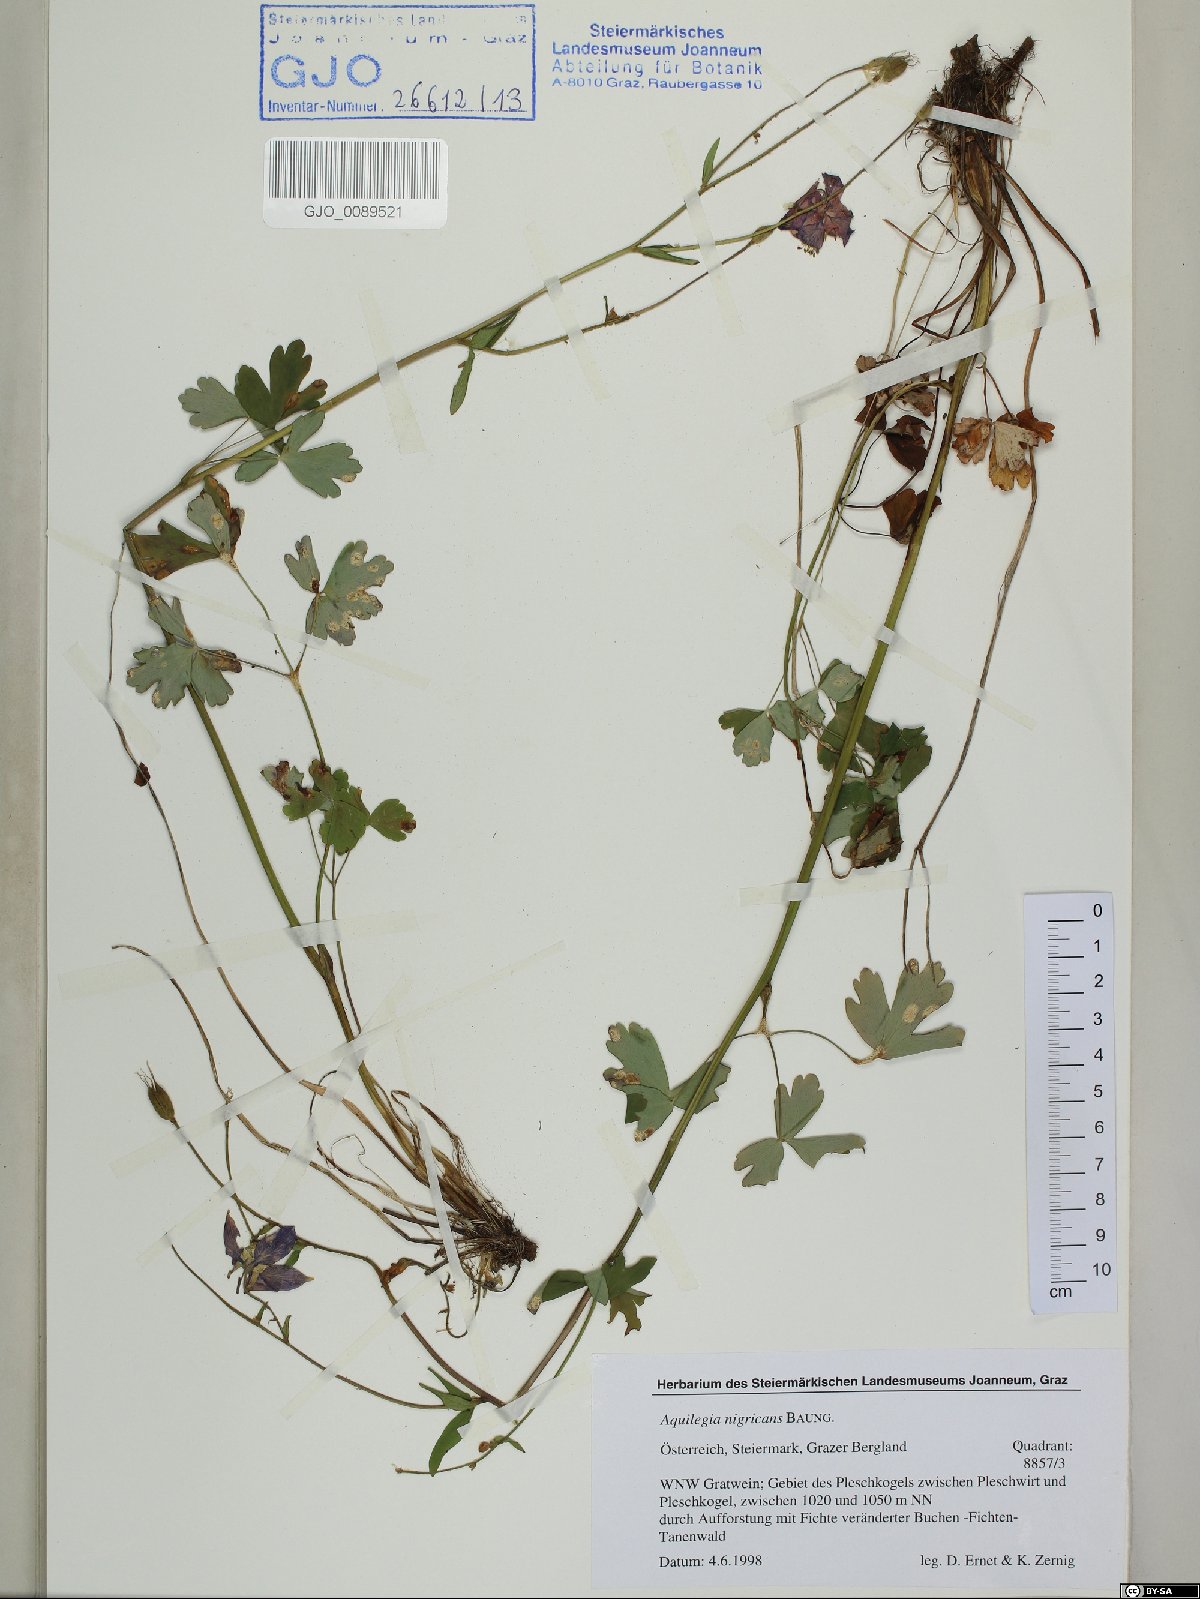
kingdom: Plantae
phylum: Tracheophyta
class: Magnoliopsida
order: Ranunculales
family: Ranunculaceae
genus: Aquilegia
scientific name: Aquilegia nigricans
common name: Bulgarian columbine
